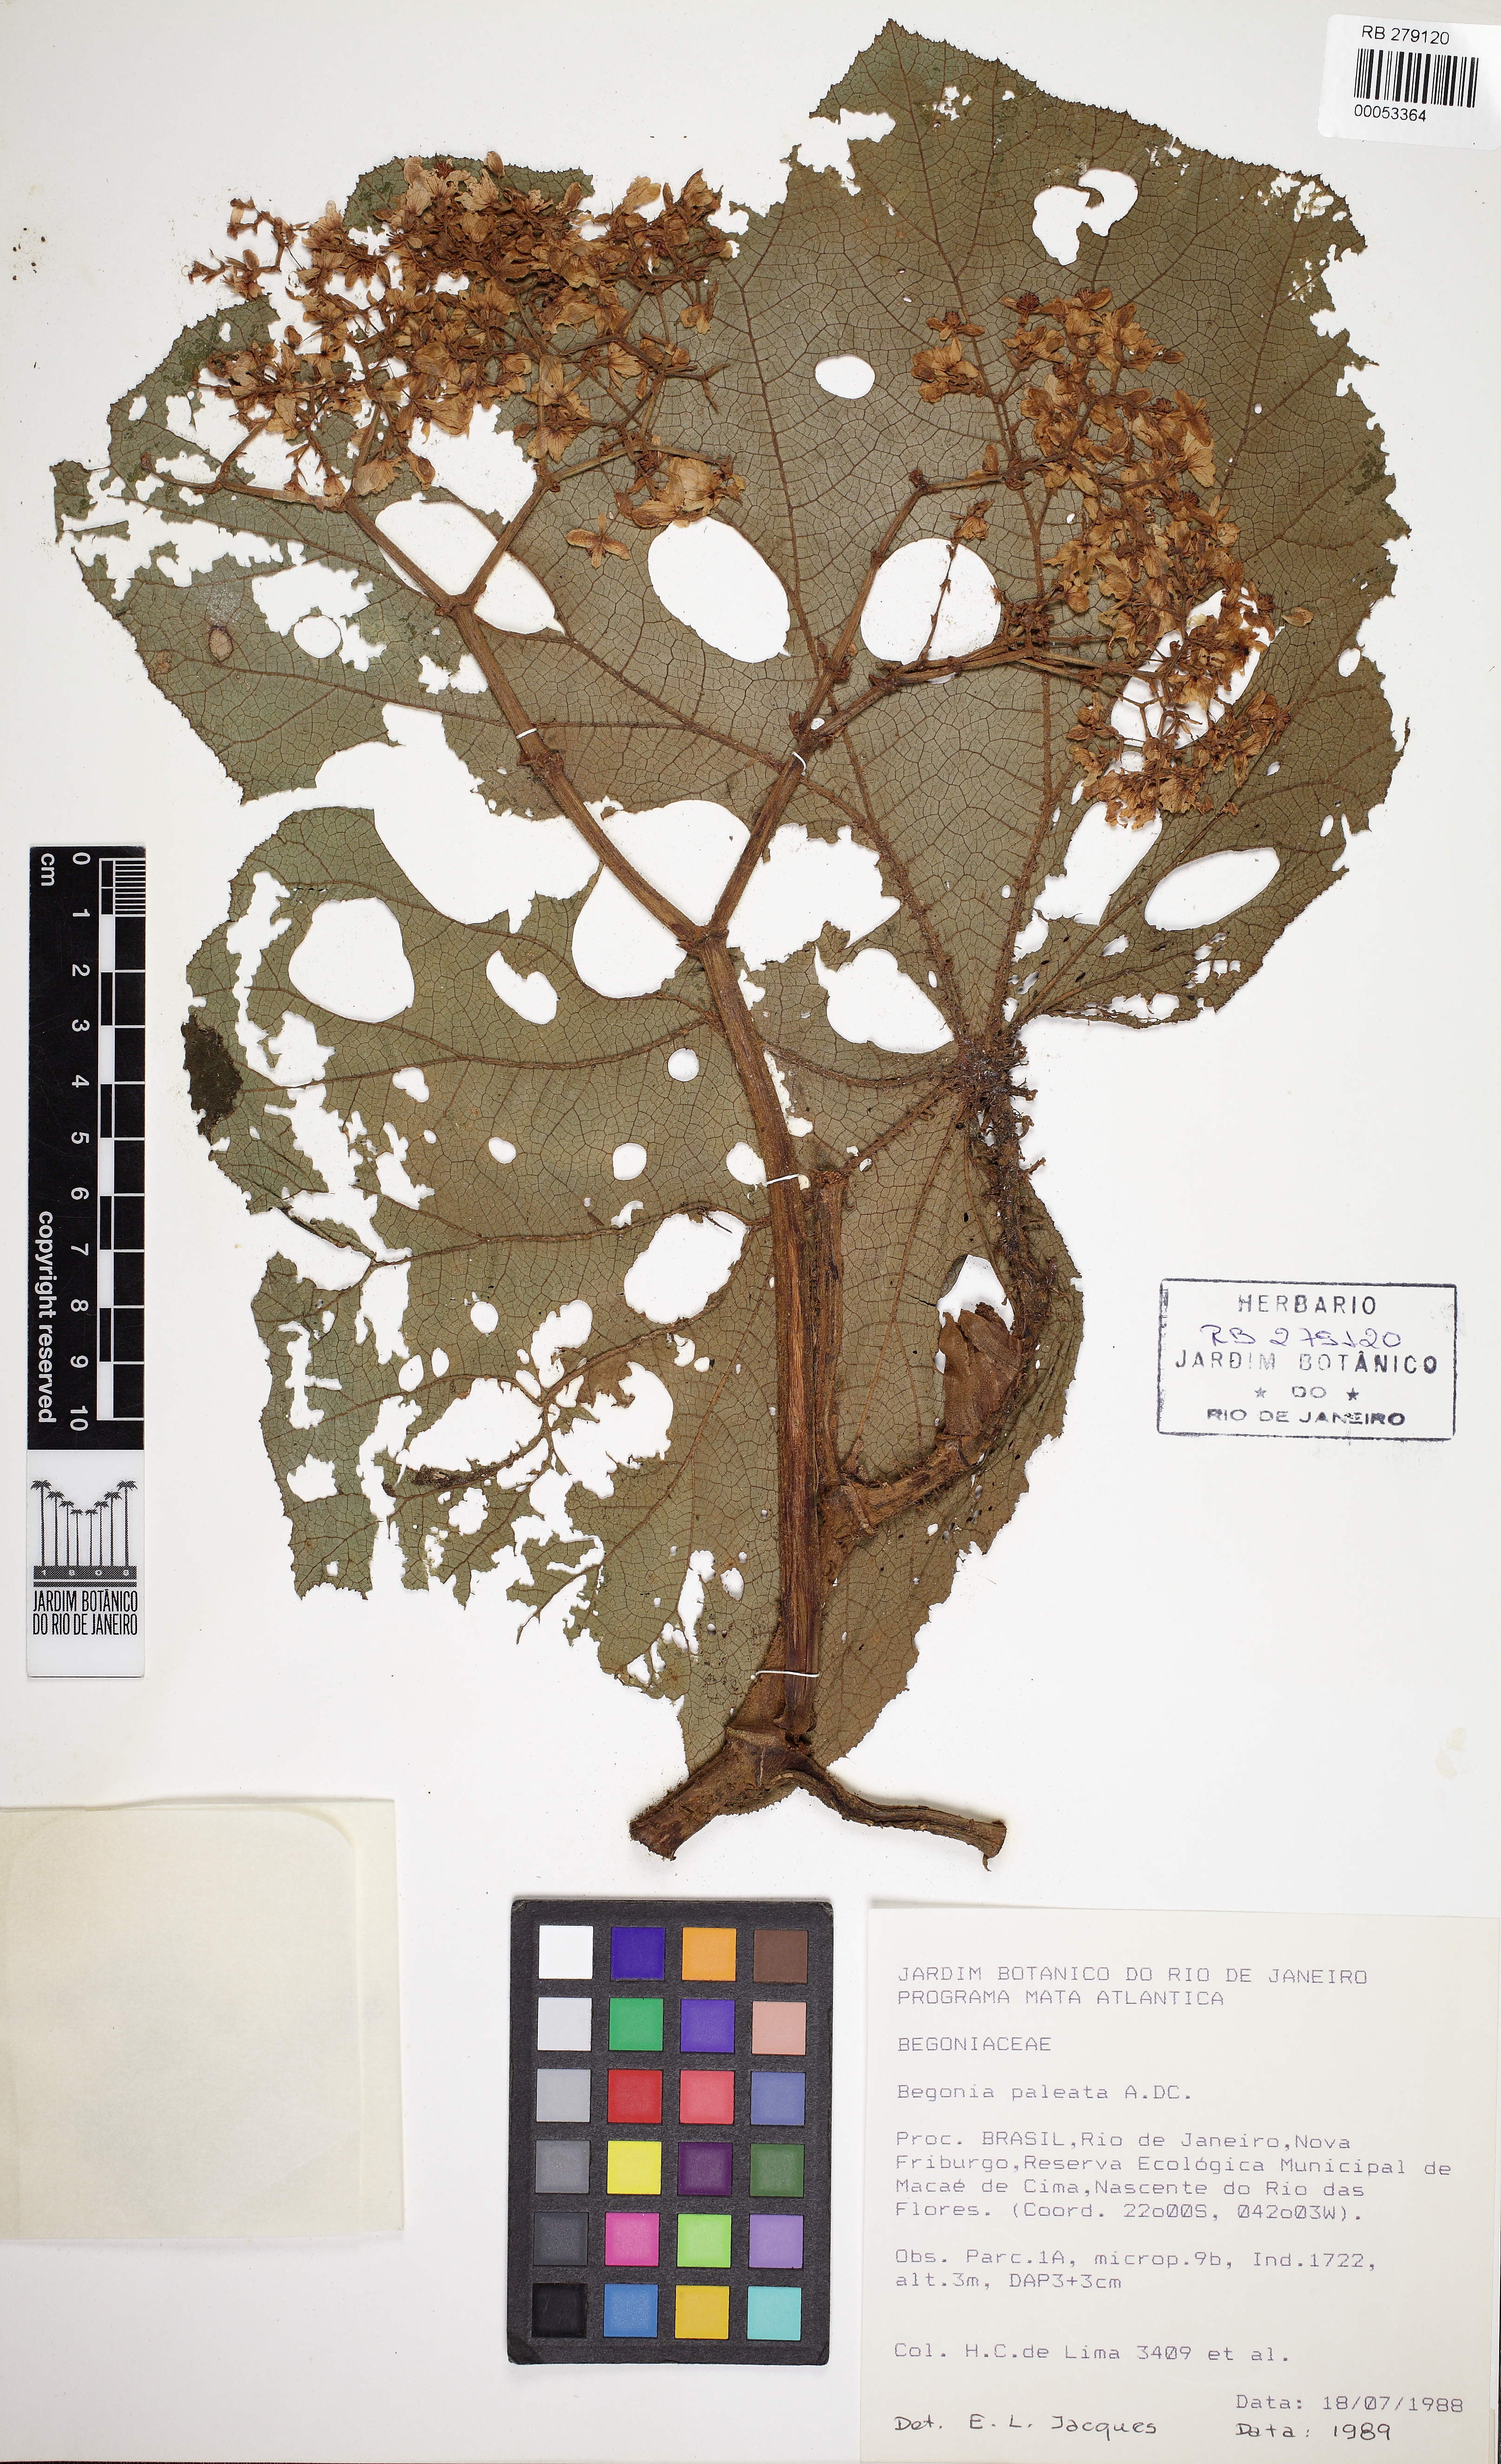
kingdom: Plantae
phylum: Tracheophyta
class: Magnoliopsida
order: Cucurbitales
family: Begoniaceae
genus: Begonia
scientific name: Begonia paleata
